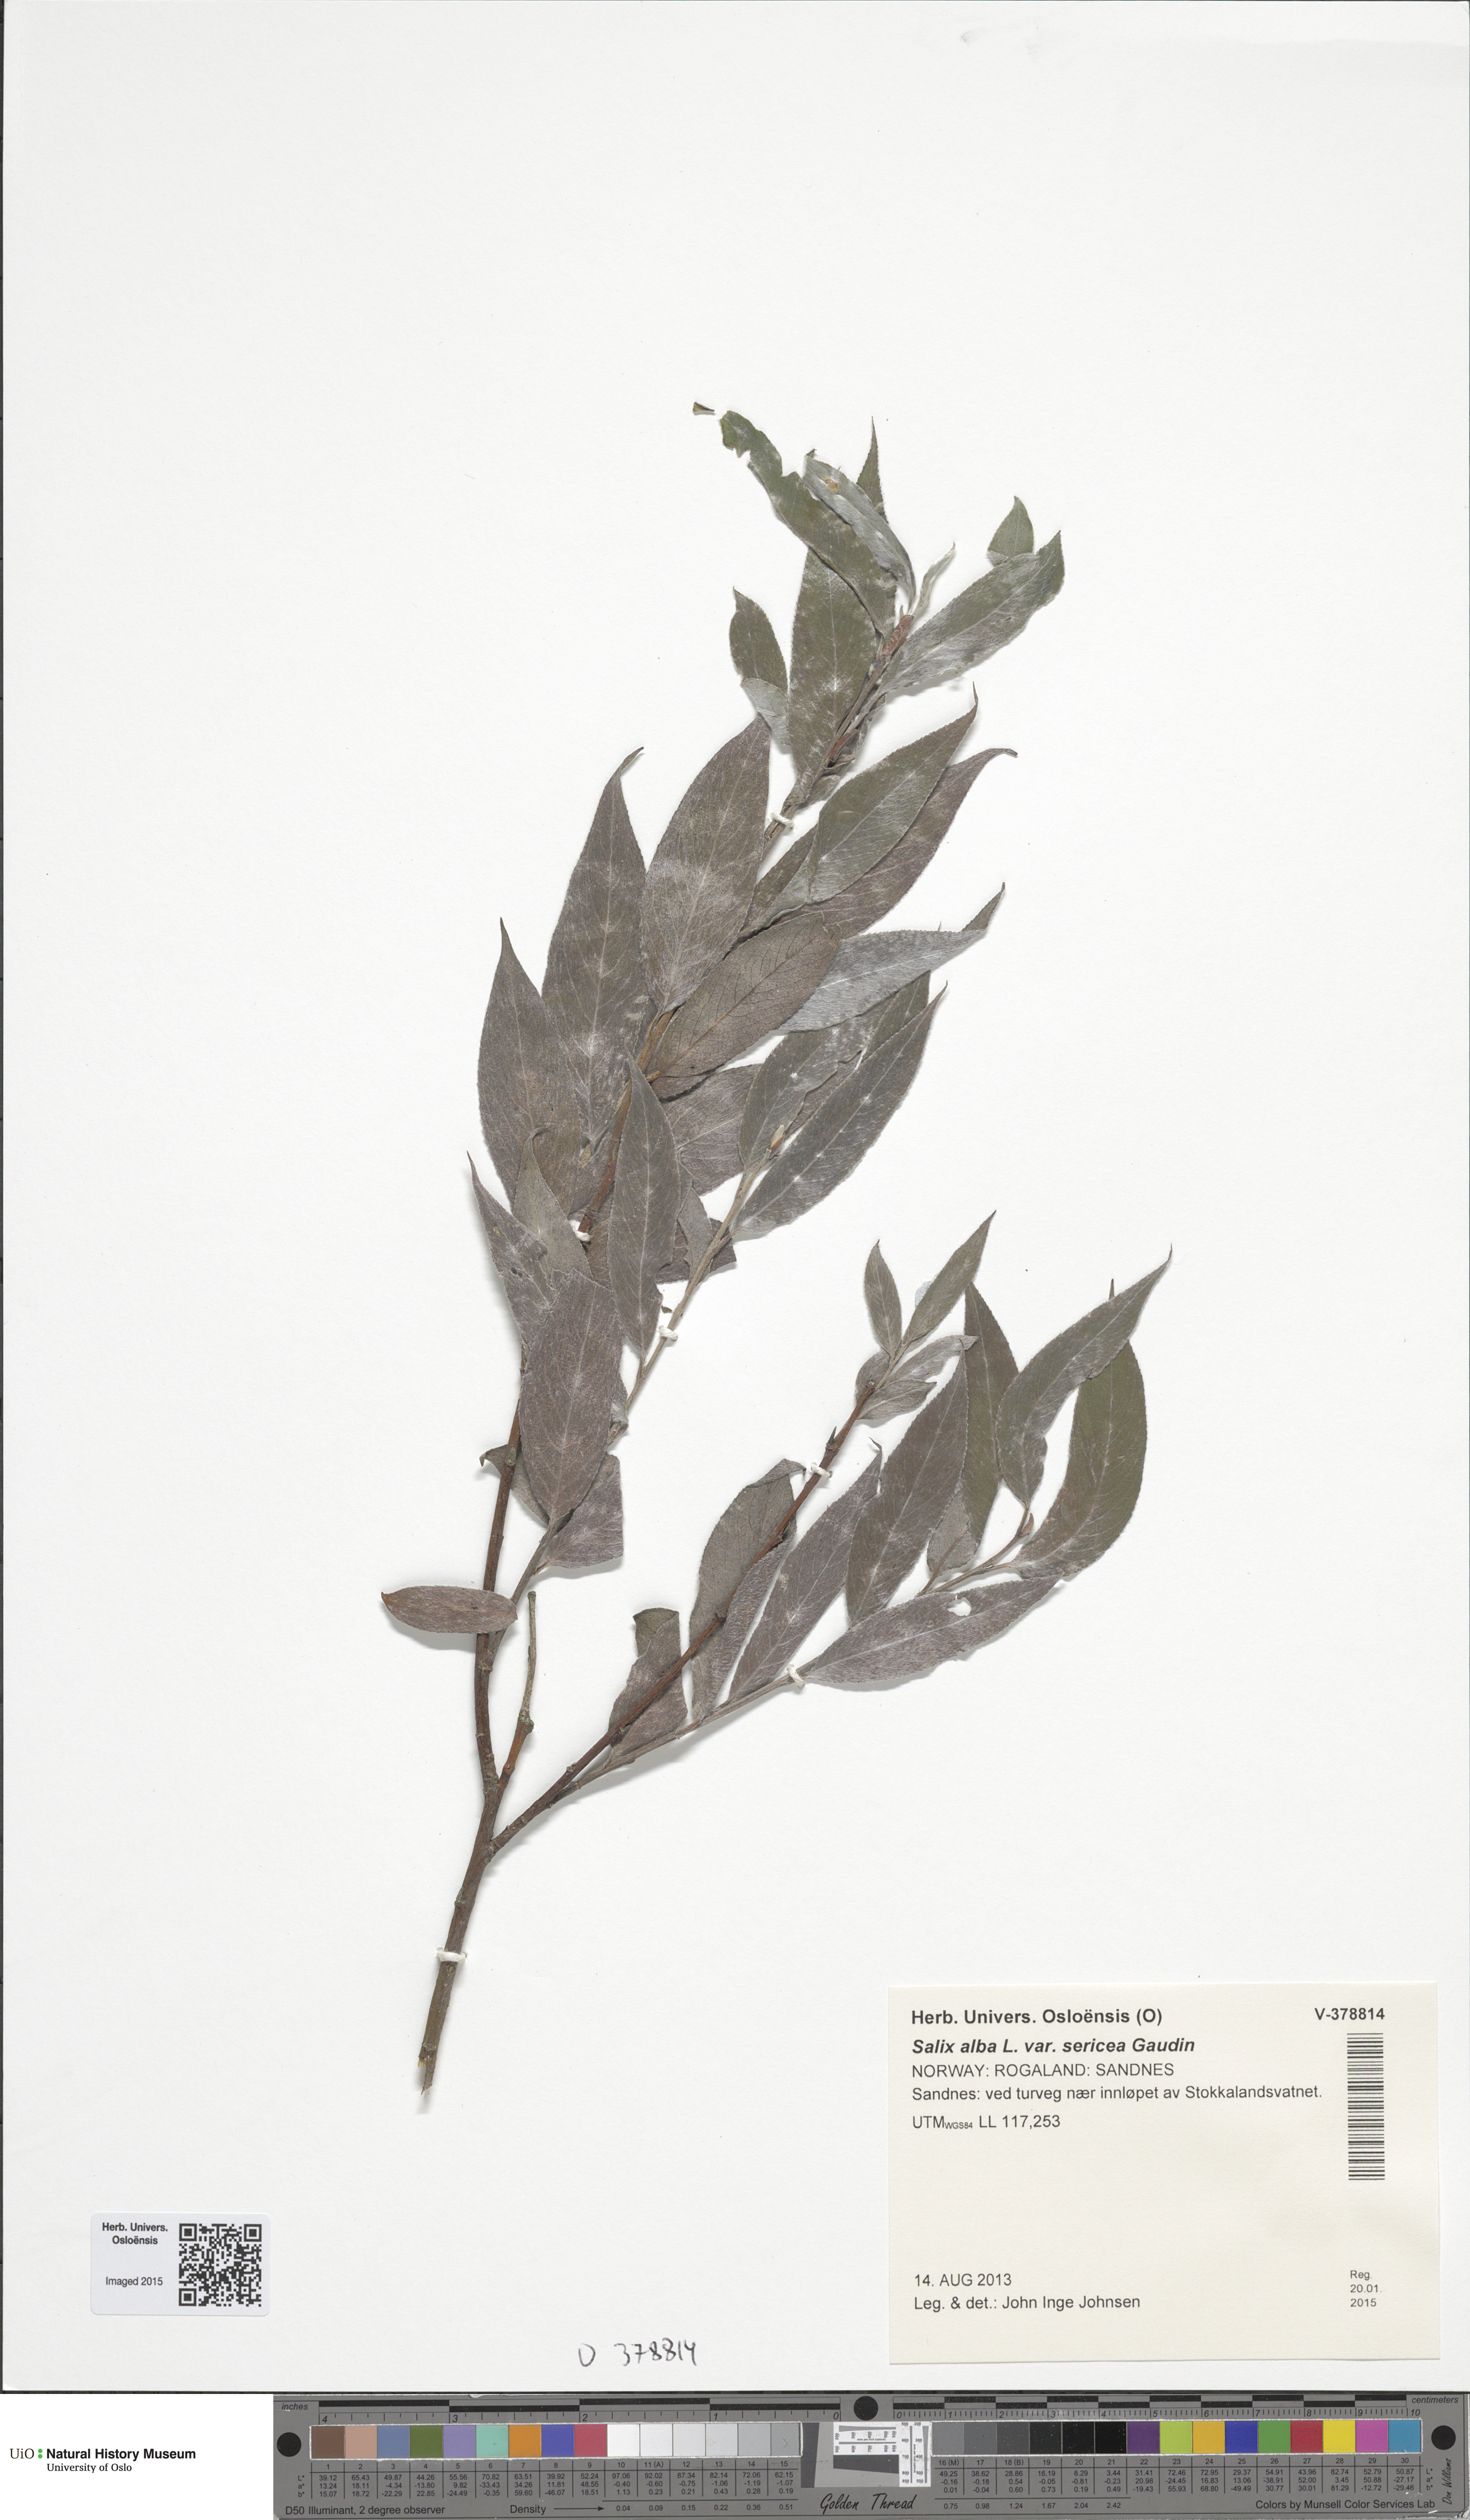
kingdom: Plantae
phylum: Tracheophyta
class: Magnoliopsida
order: Malpighiales
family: Salicaceae
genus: Salix
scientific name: Salix alba
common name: White willow
